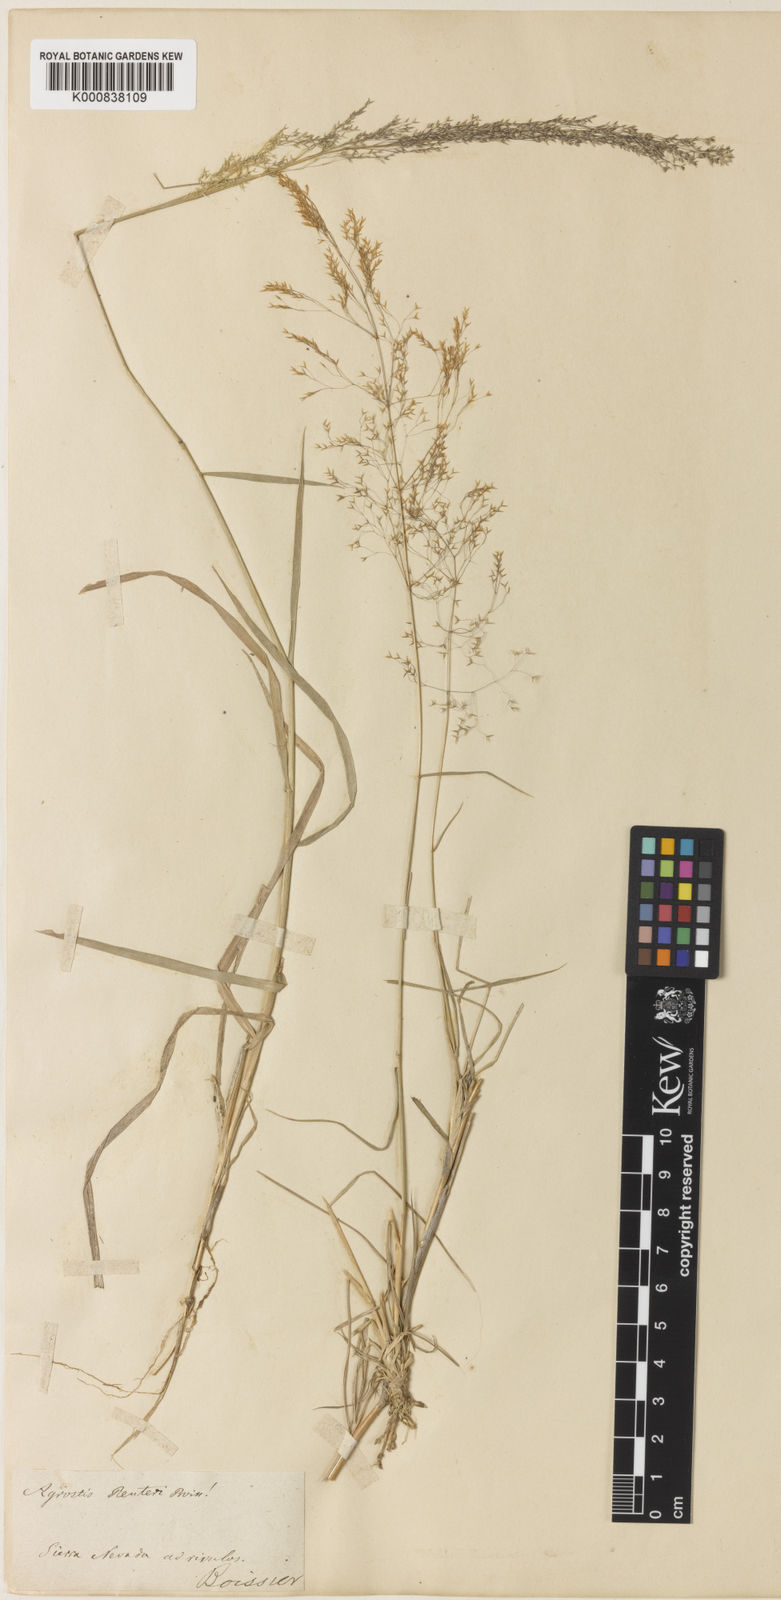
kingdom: Plantae
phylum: Tracheophyta
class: Liliopsida
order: Poales
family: Poaceae
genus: Agrostis
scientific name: Agrostis reuteri
